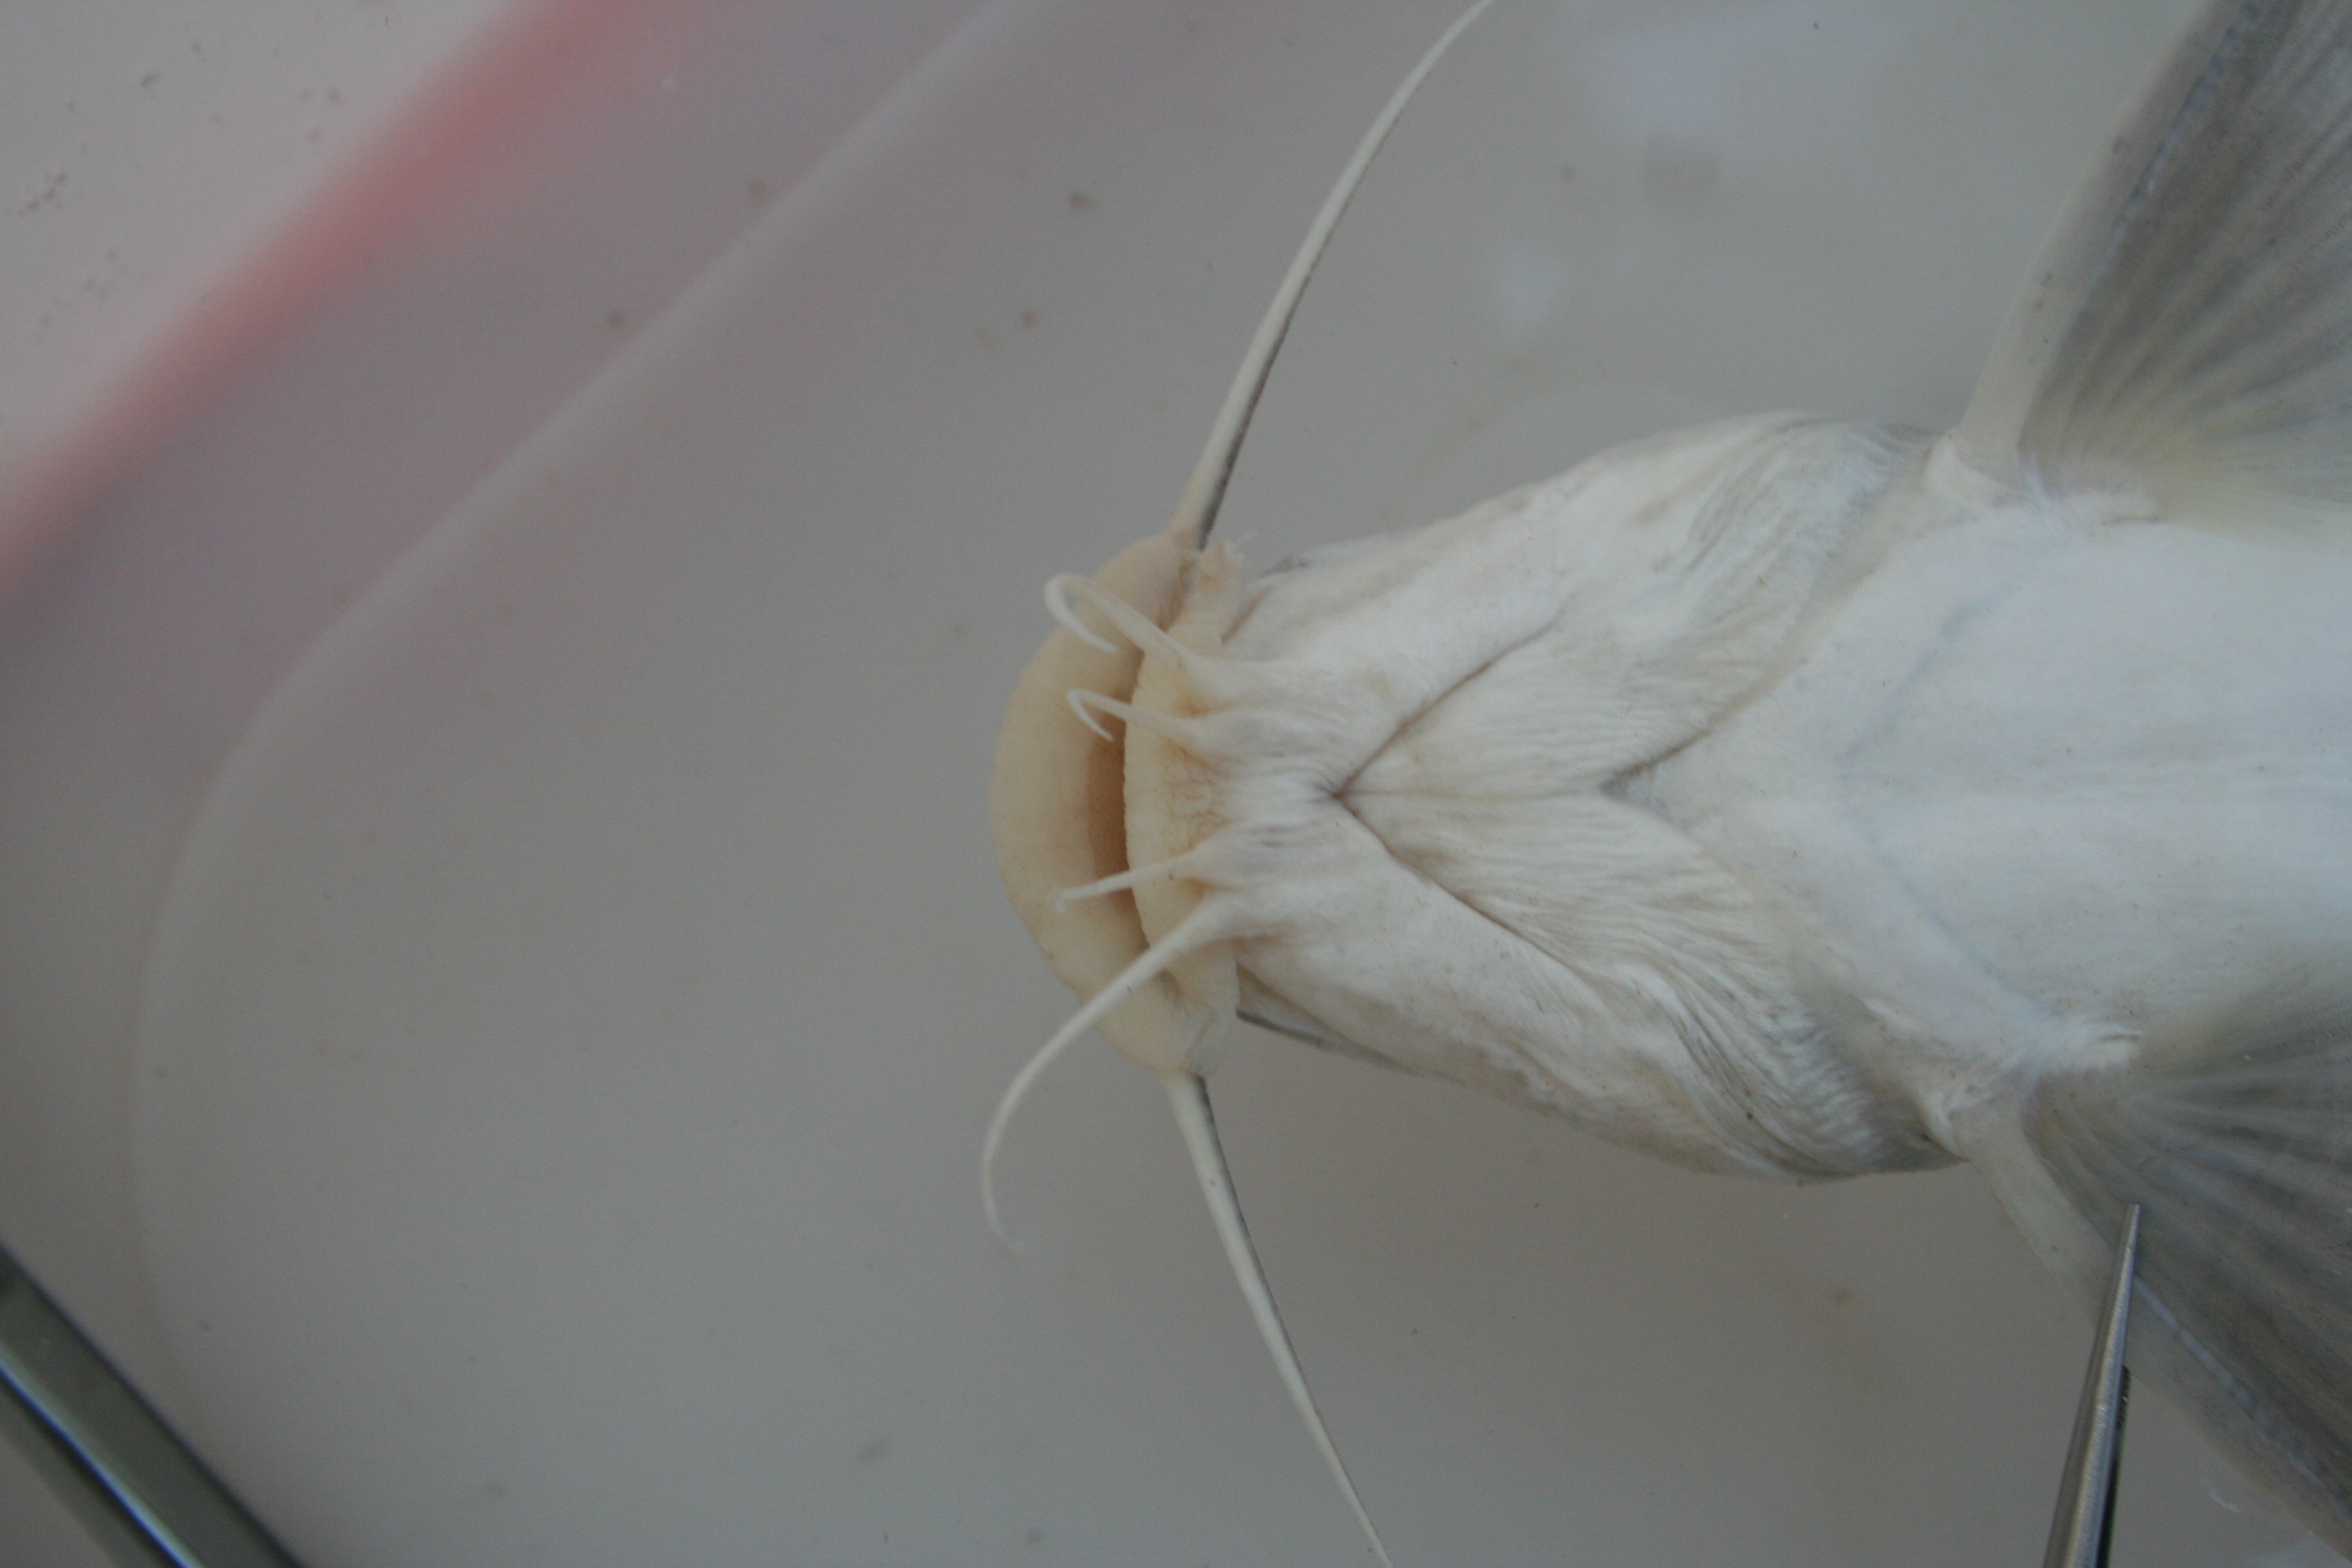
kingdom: Animalia
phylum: Chordata
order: Siluriformes
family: Claroteidae
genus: Chrysichthys
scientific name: Chrysichthys
